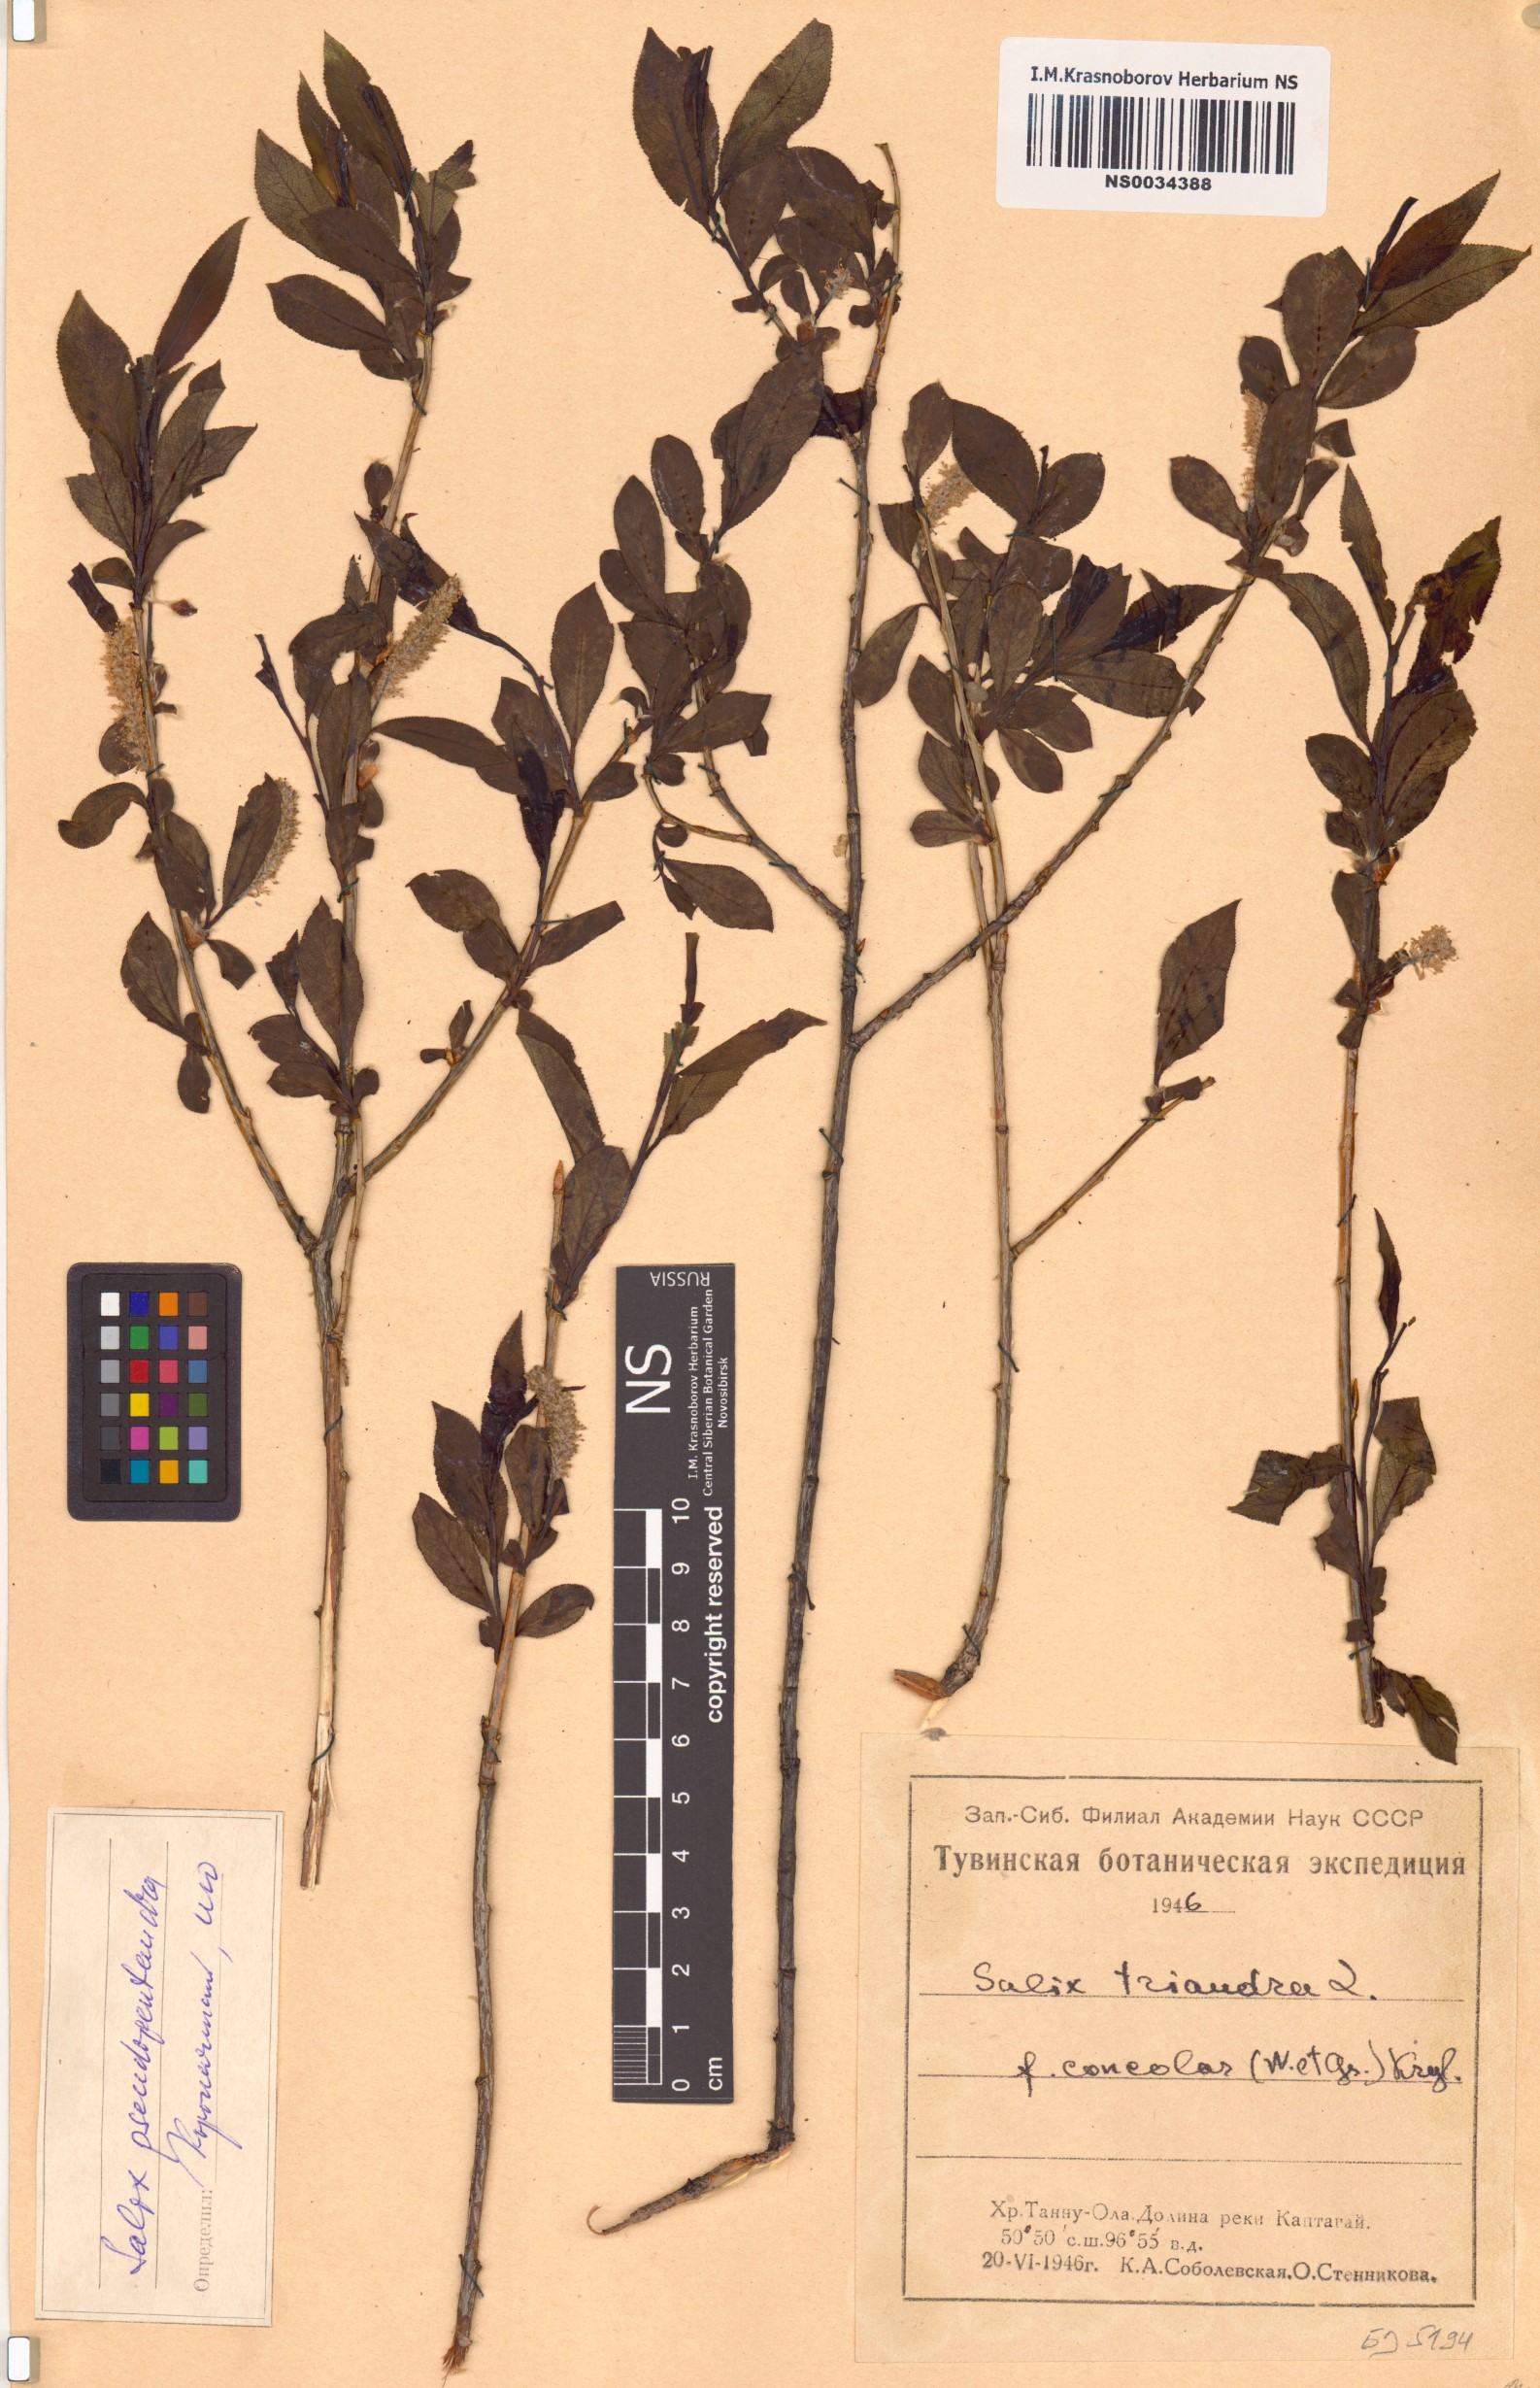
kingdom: Plantae
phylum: Tracheophyta
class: Magnoliopsida
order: Malpighiales
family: Salicaceae
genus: Salix
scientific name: Salix pseudopentandra
